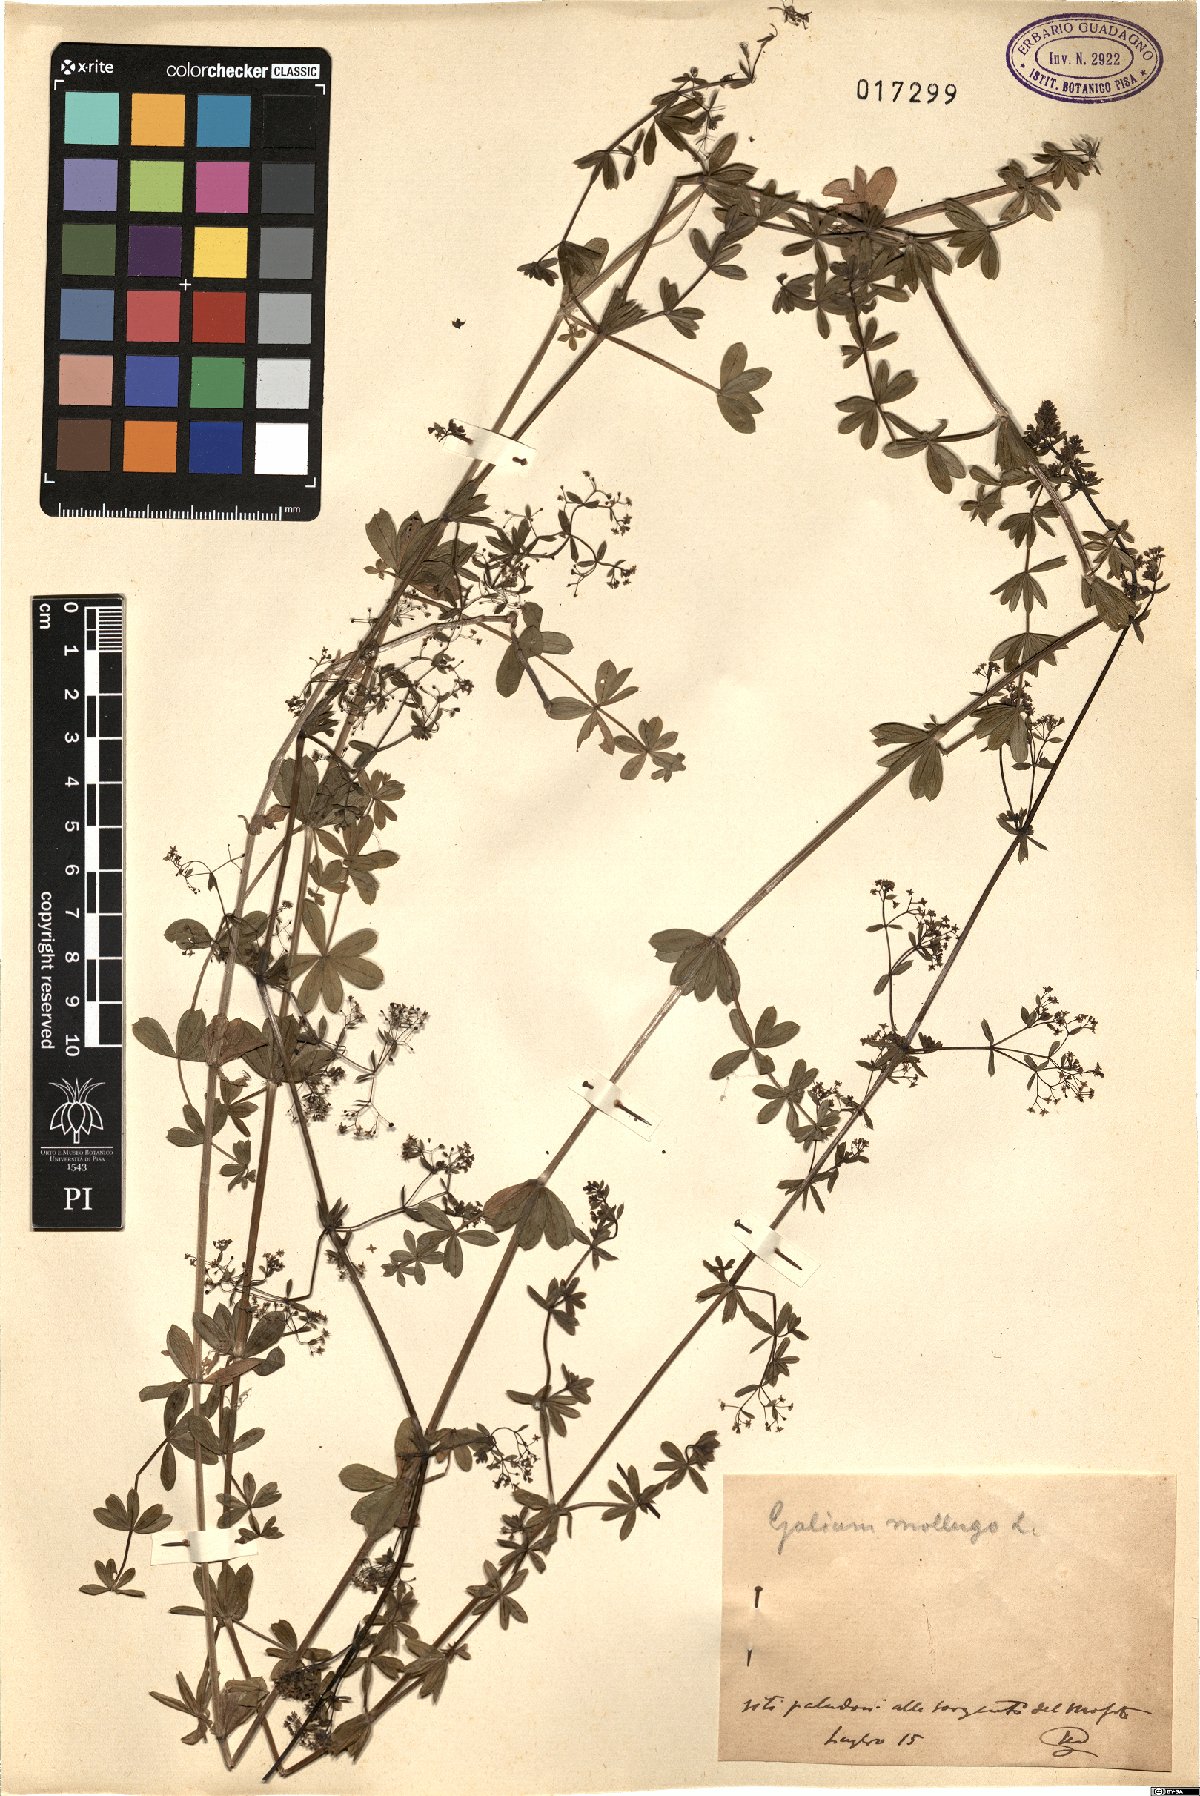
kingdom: Plantae
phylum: Tracheophyta
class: Magnoliopsida
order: Gentianales
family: Rubiaceae
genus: Galium
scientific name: Galium mollugo
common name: Hedge bedstraw
